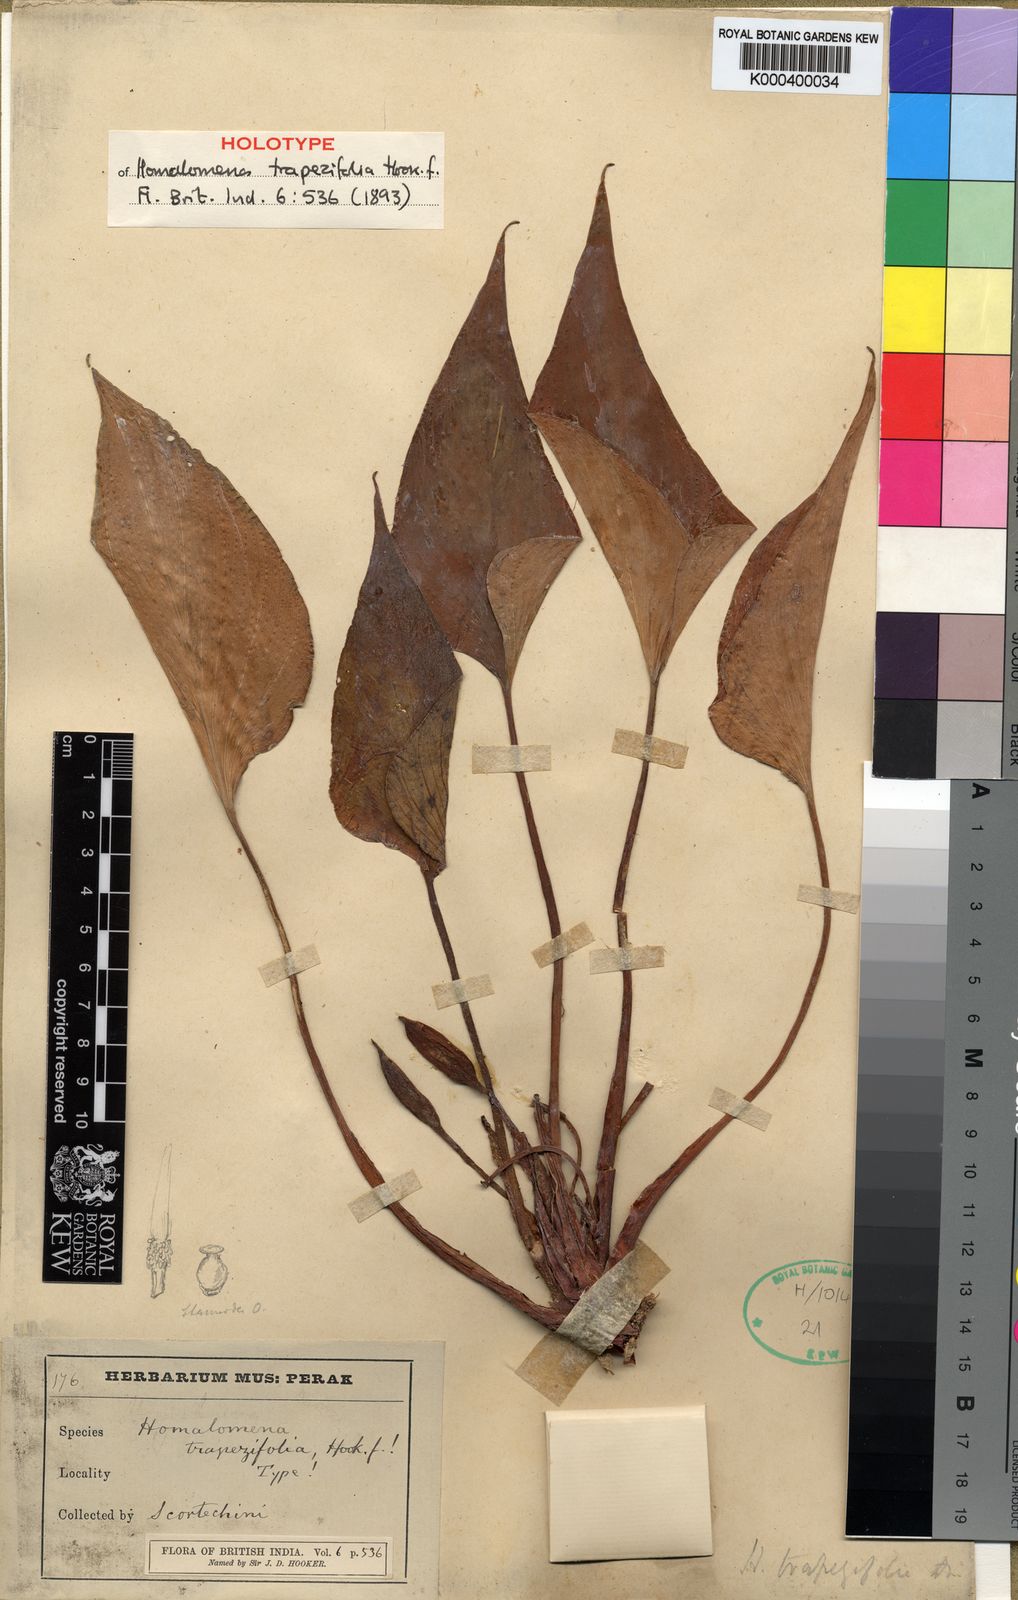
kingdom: Plantae
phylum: Tracheophyta
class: Liliopsida
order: Alismatales
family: Araceae
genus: Homalomena
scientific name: Homalomena griffithii
